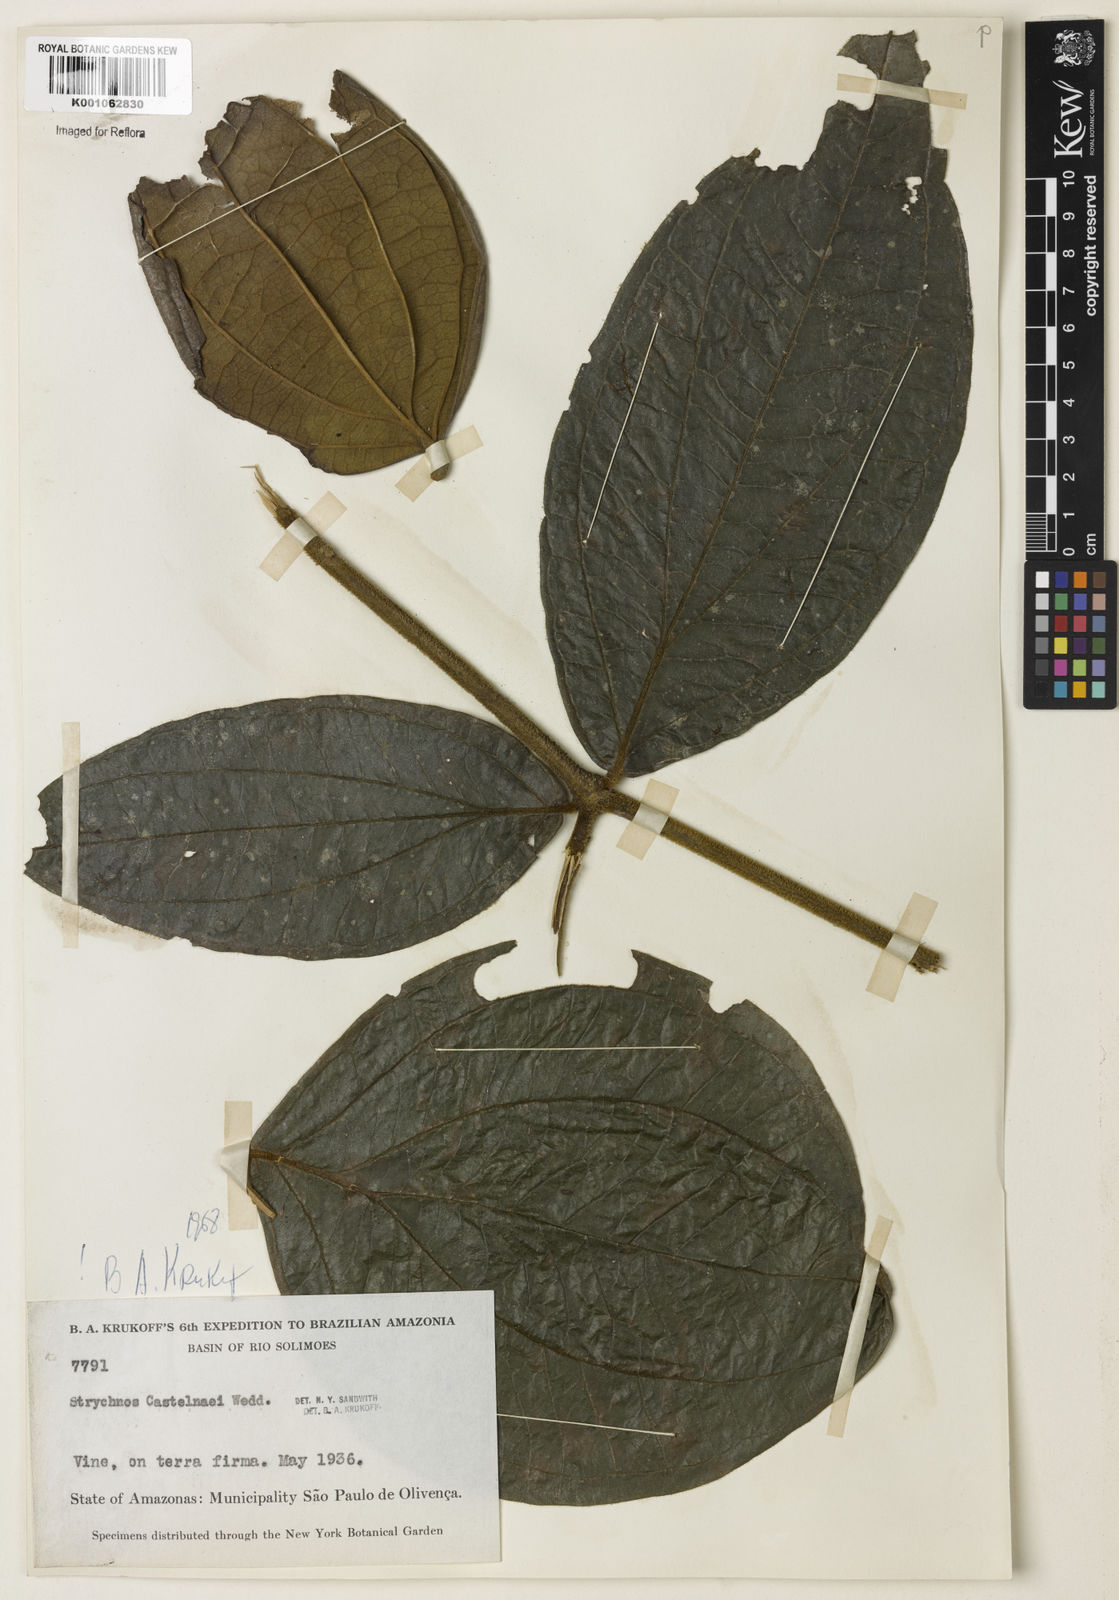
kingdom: Plantae
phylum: Tracheophyta
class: Magnoliopsida
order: Gentianales
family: Loganiaceae
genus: Strychnos
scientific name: Strychnos
